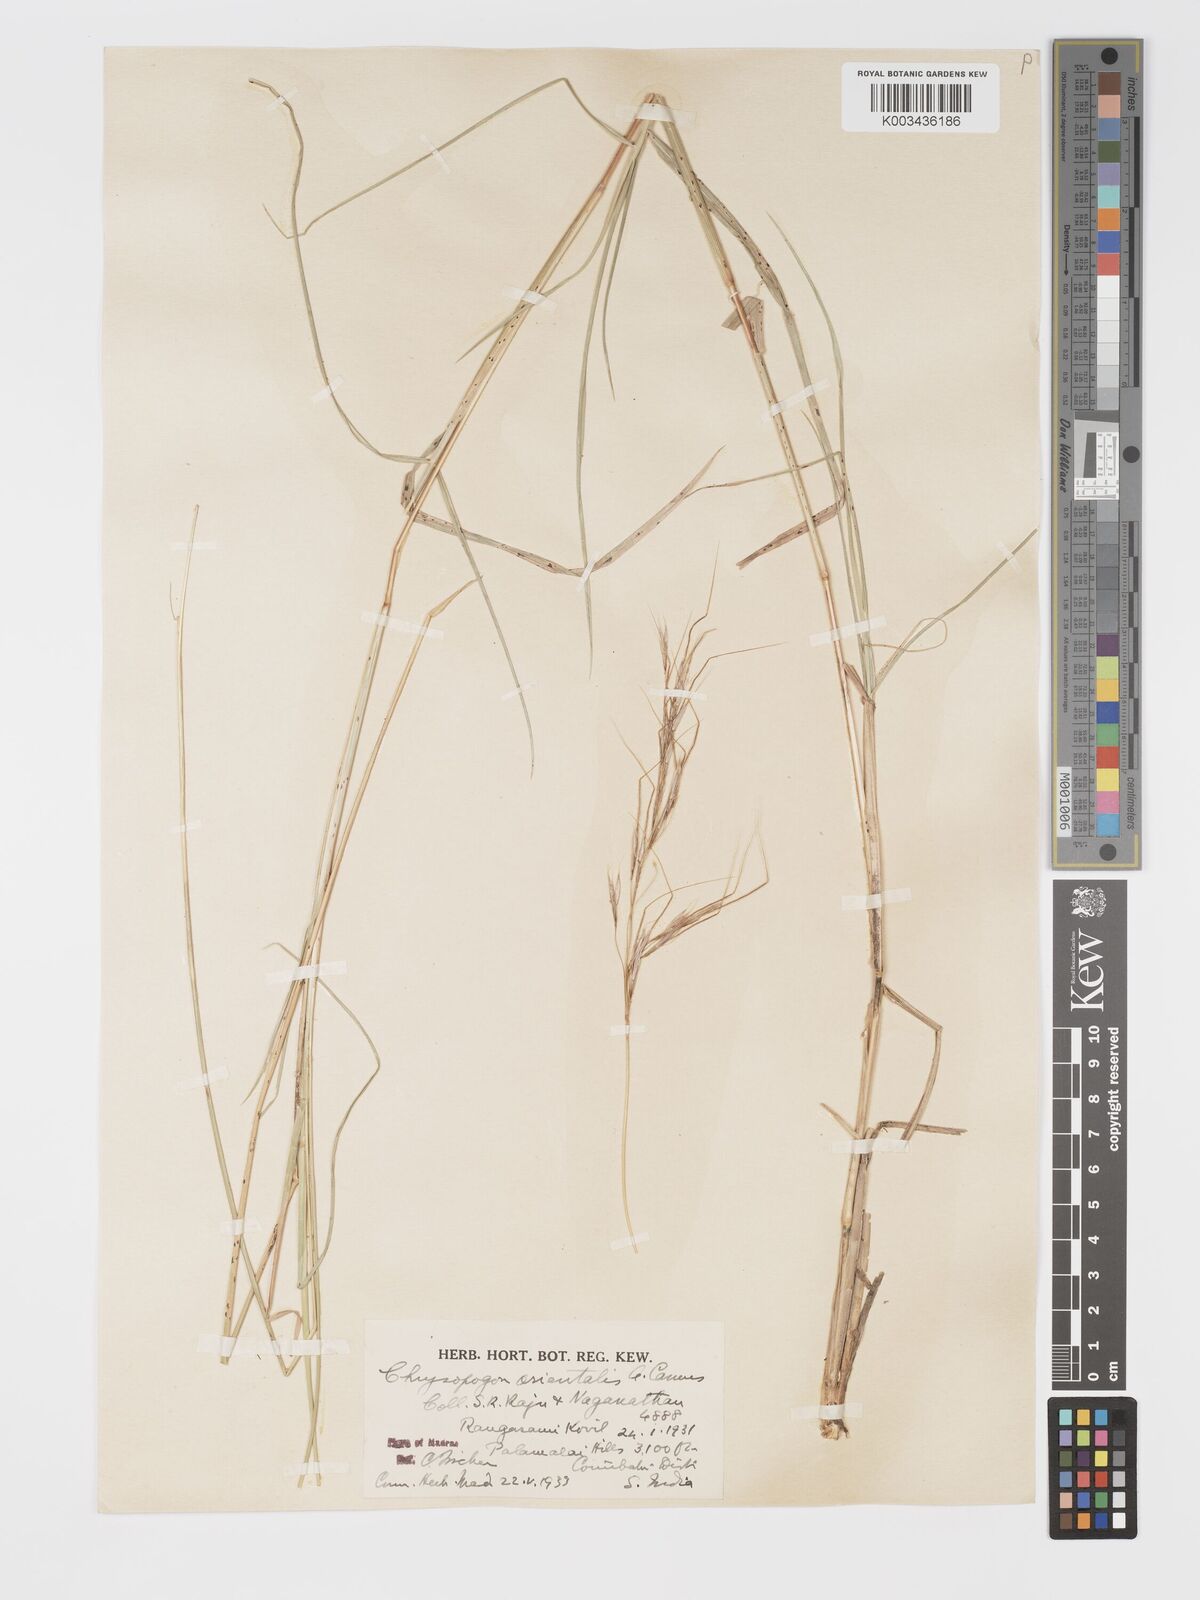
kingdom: Plantae
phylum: Tracheophyta
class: Liliopsida
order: Poales
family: Poaceae
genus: Chrysopogon
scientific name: Chrysopogon orientalis
